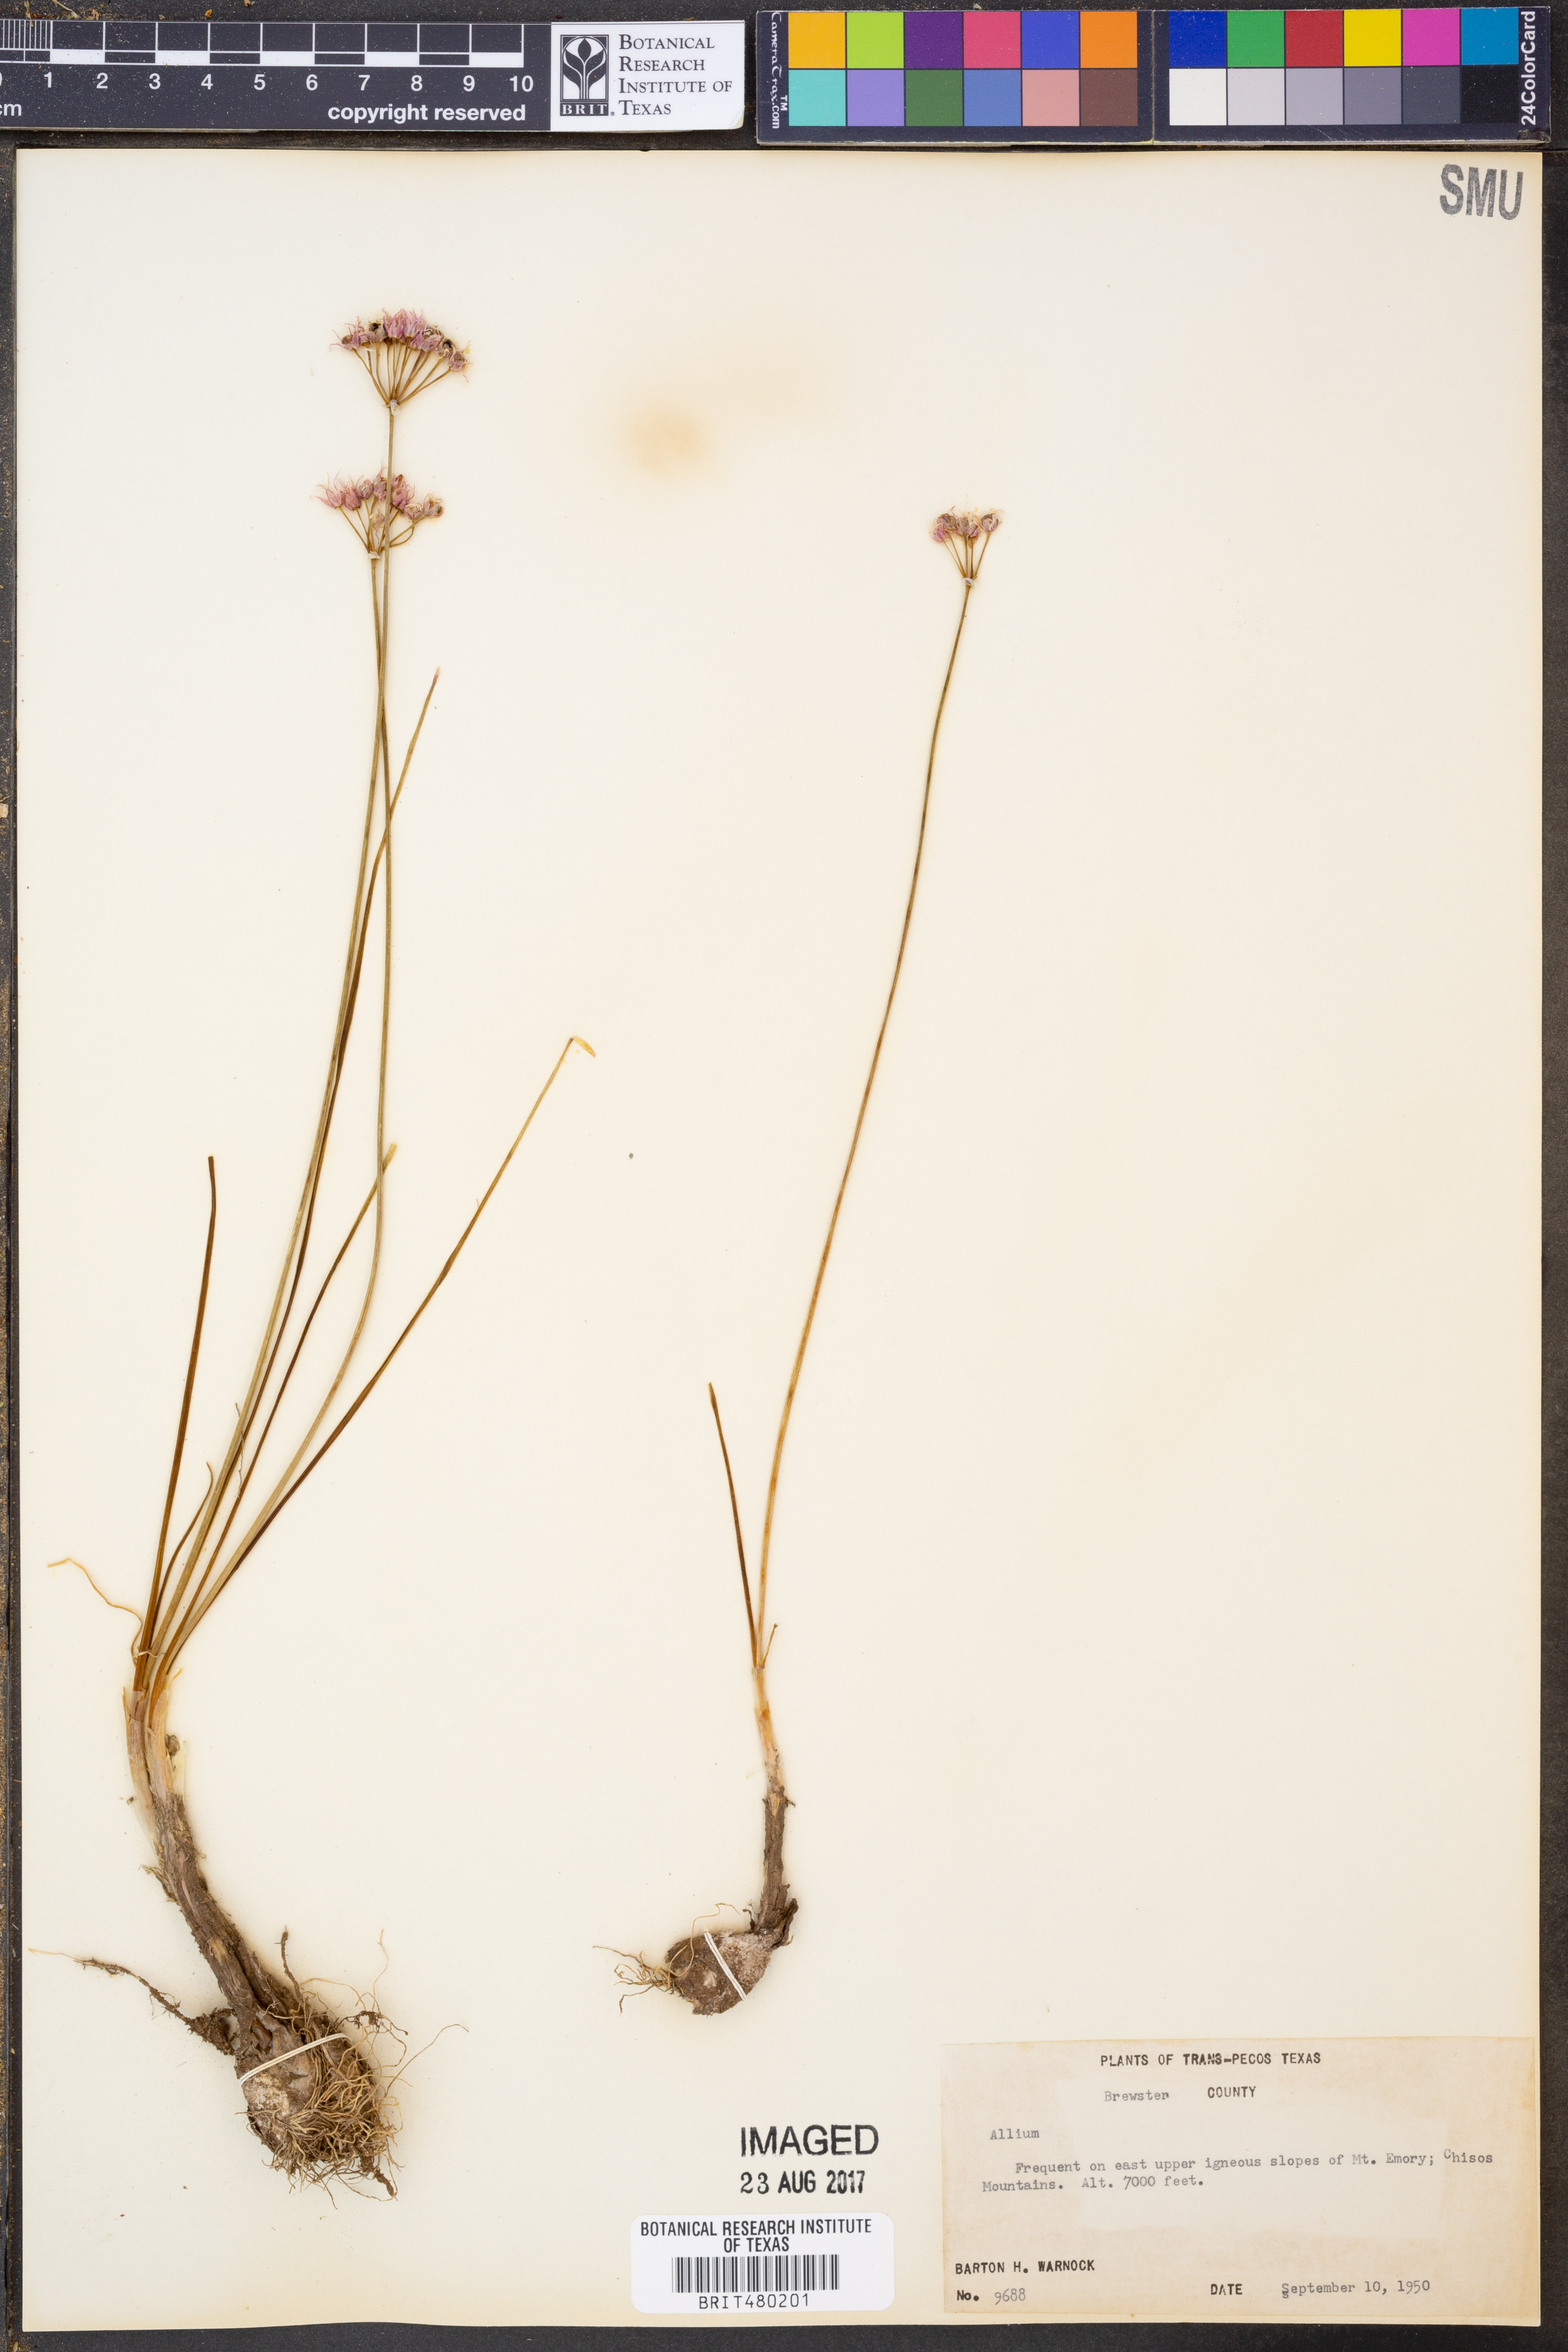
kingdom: Plantae
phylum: Tracheophyta
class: Liliopsida
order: Asparagales
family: Amaryllidaceae
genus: Allium
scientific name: Allium
